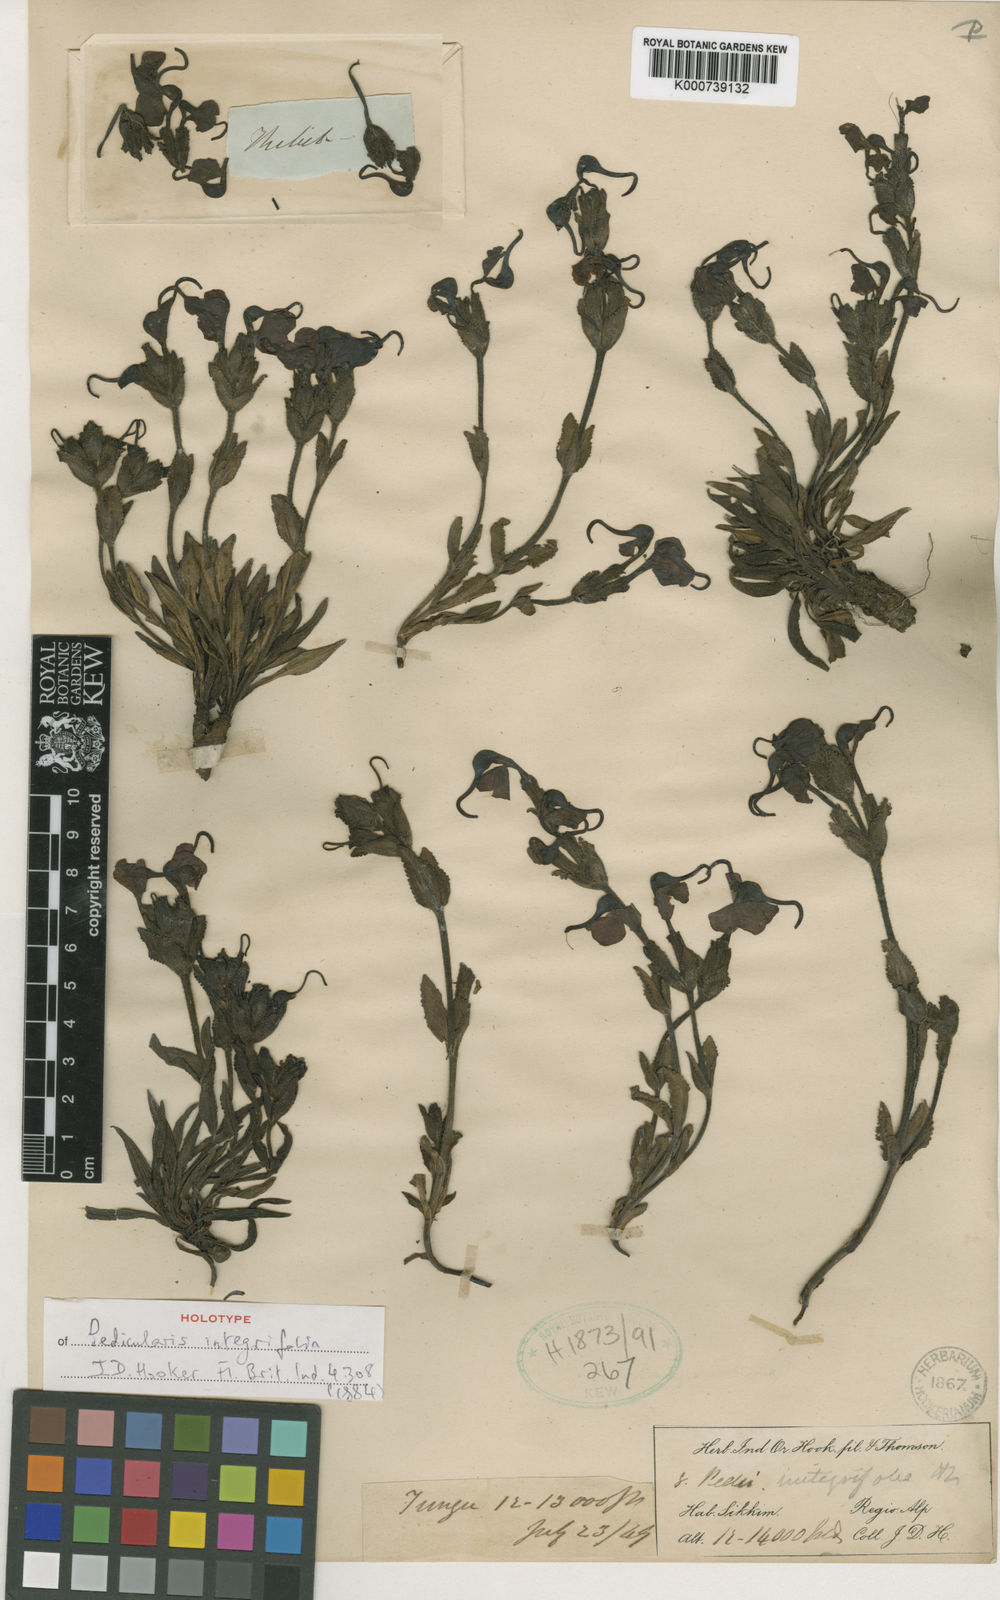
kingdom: Plantae
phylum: Tracheophyta
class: Magnoliopsida
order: Lamiales
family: Orobanchaceae
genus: Pedicularis
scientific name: Pedicularis integrifolia
